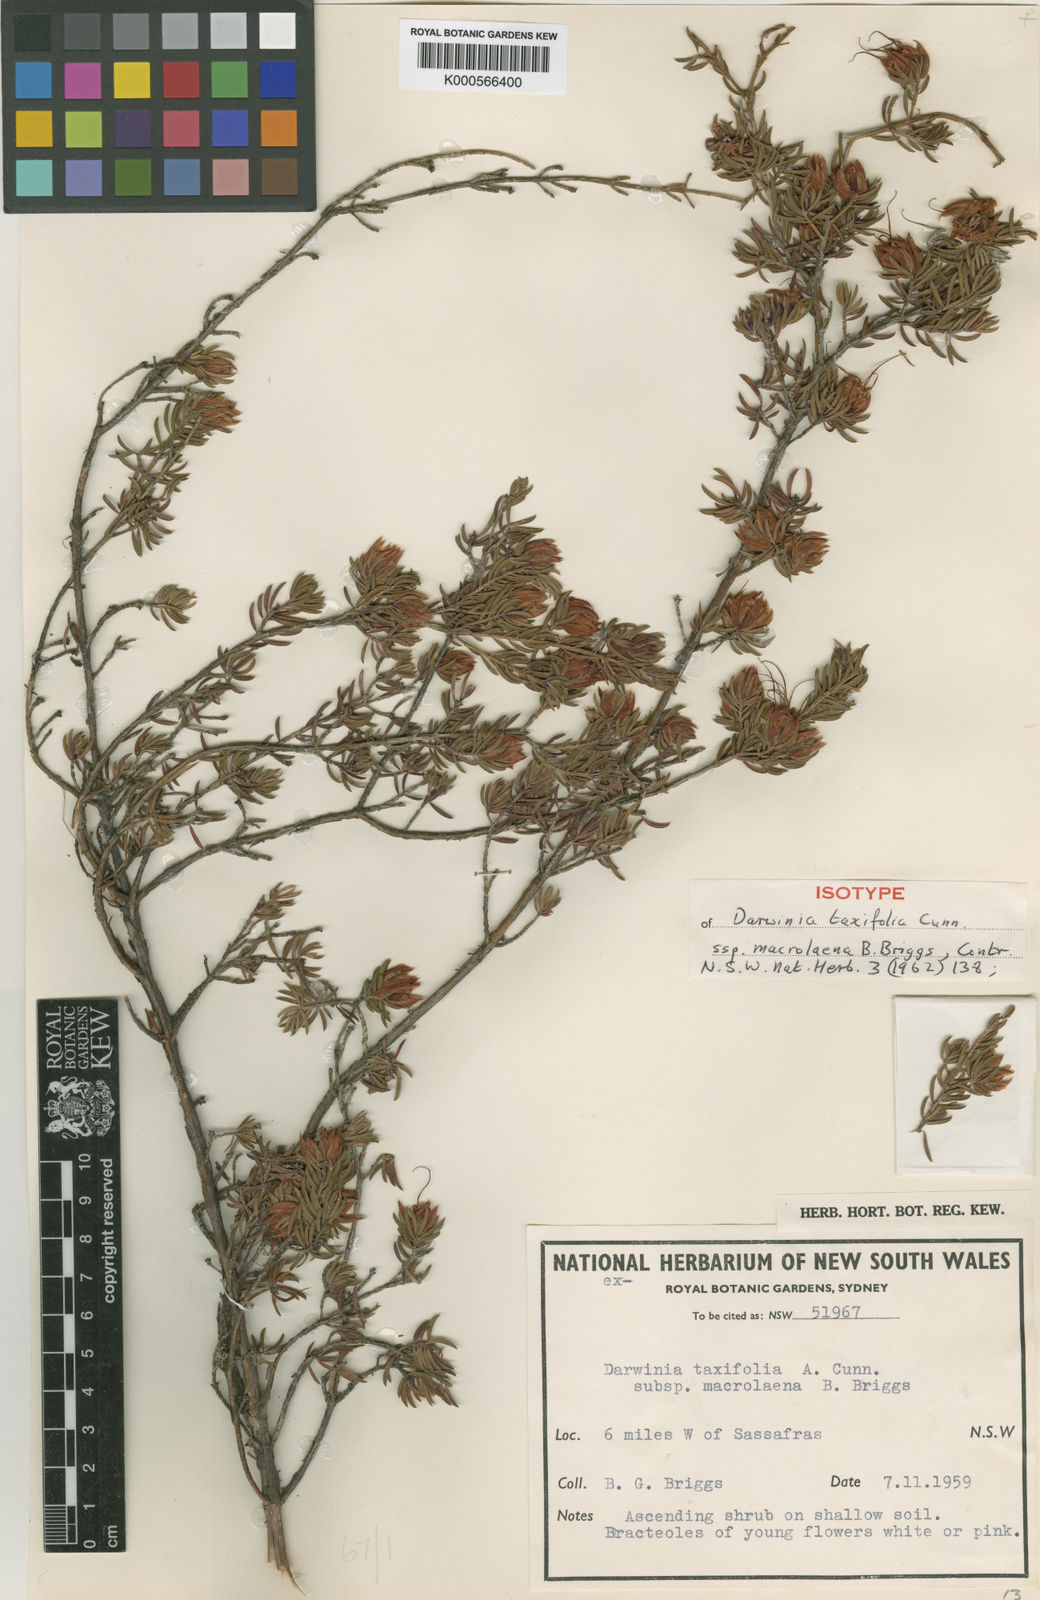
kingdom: Plantae
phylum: Tracheophyta
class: Magnoliopsida
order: Myrtales
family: Myrtaceae
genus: Darwinia
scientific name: Darwinia taxifolia
